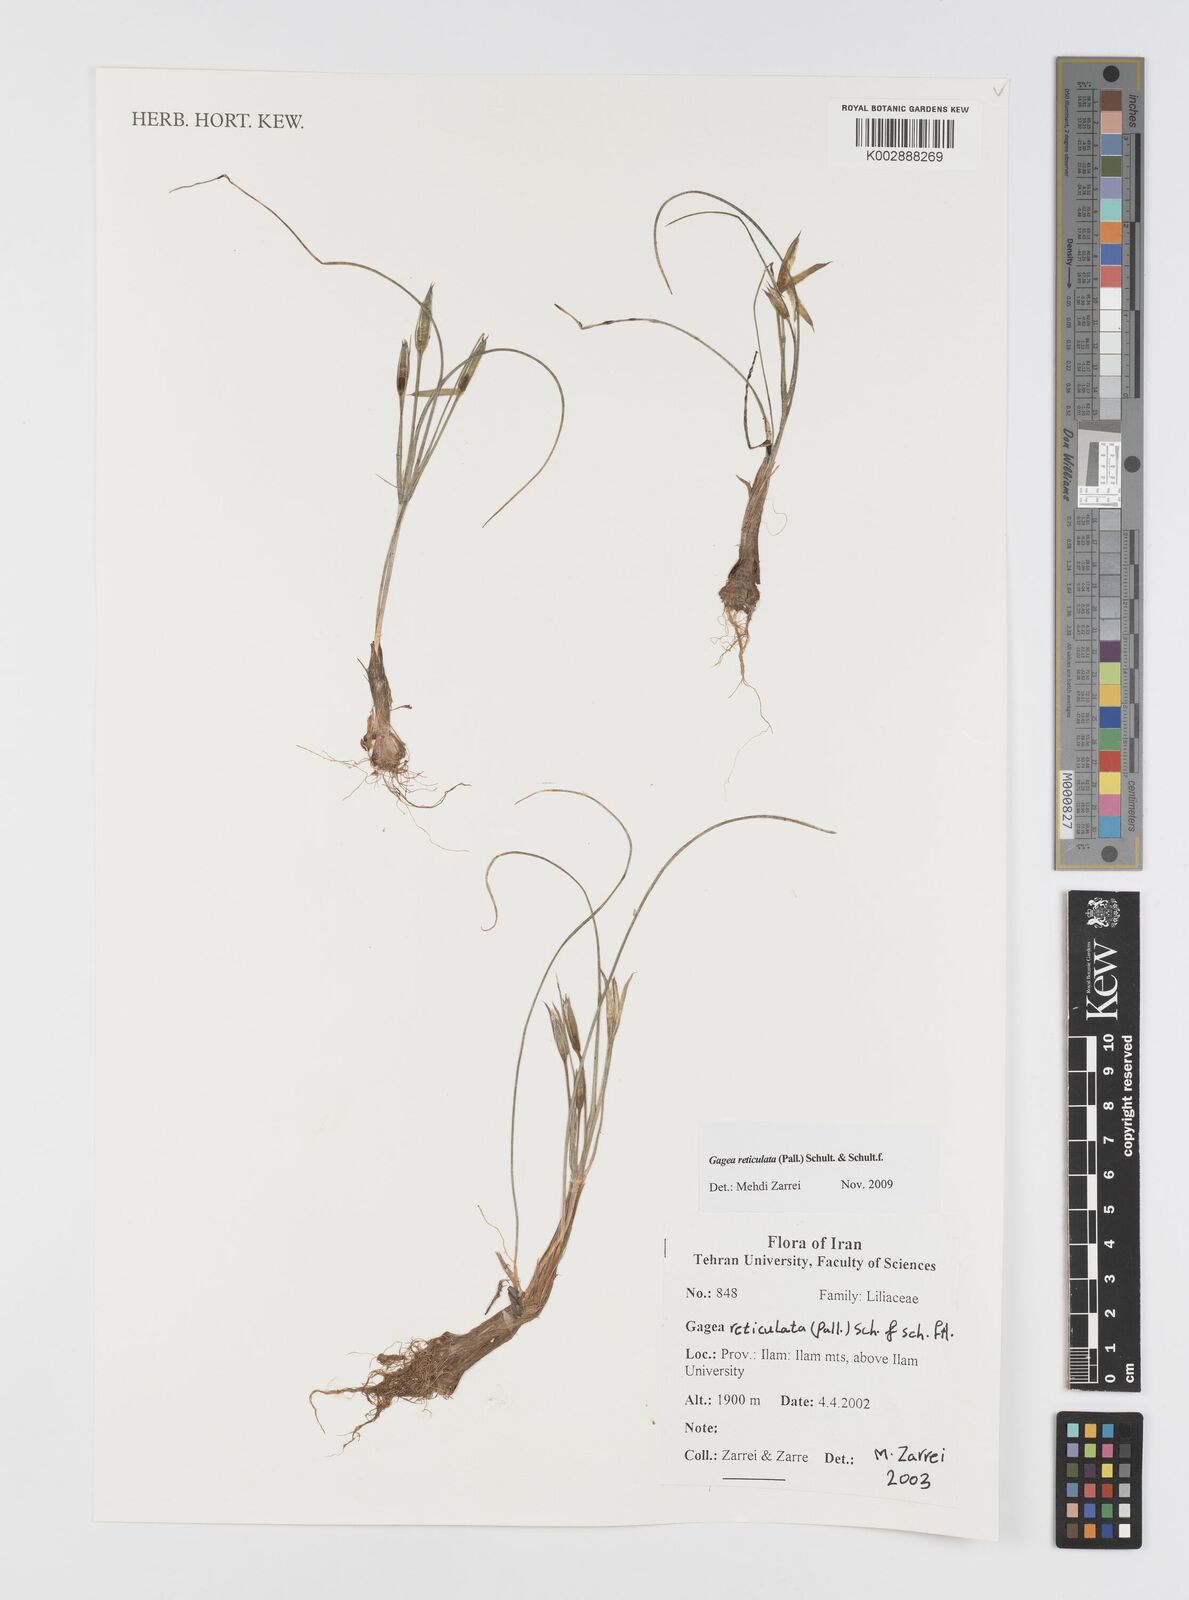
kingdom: Plantae
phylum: Tracheophyta
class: Liliopsida
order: Liliales
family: Liliaceae
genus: Gagea
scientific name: Gagea reticulata
